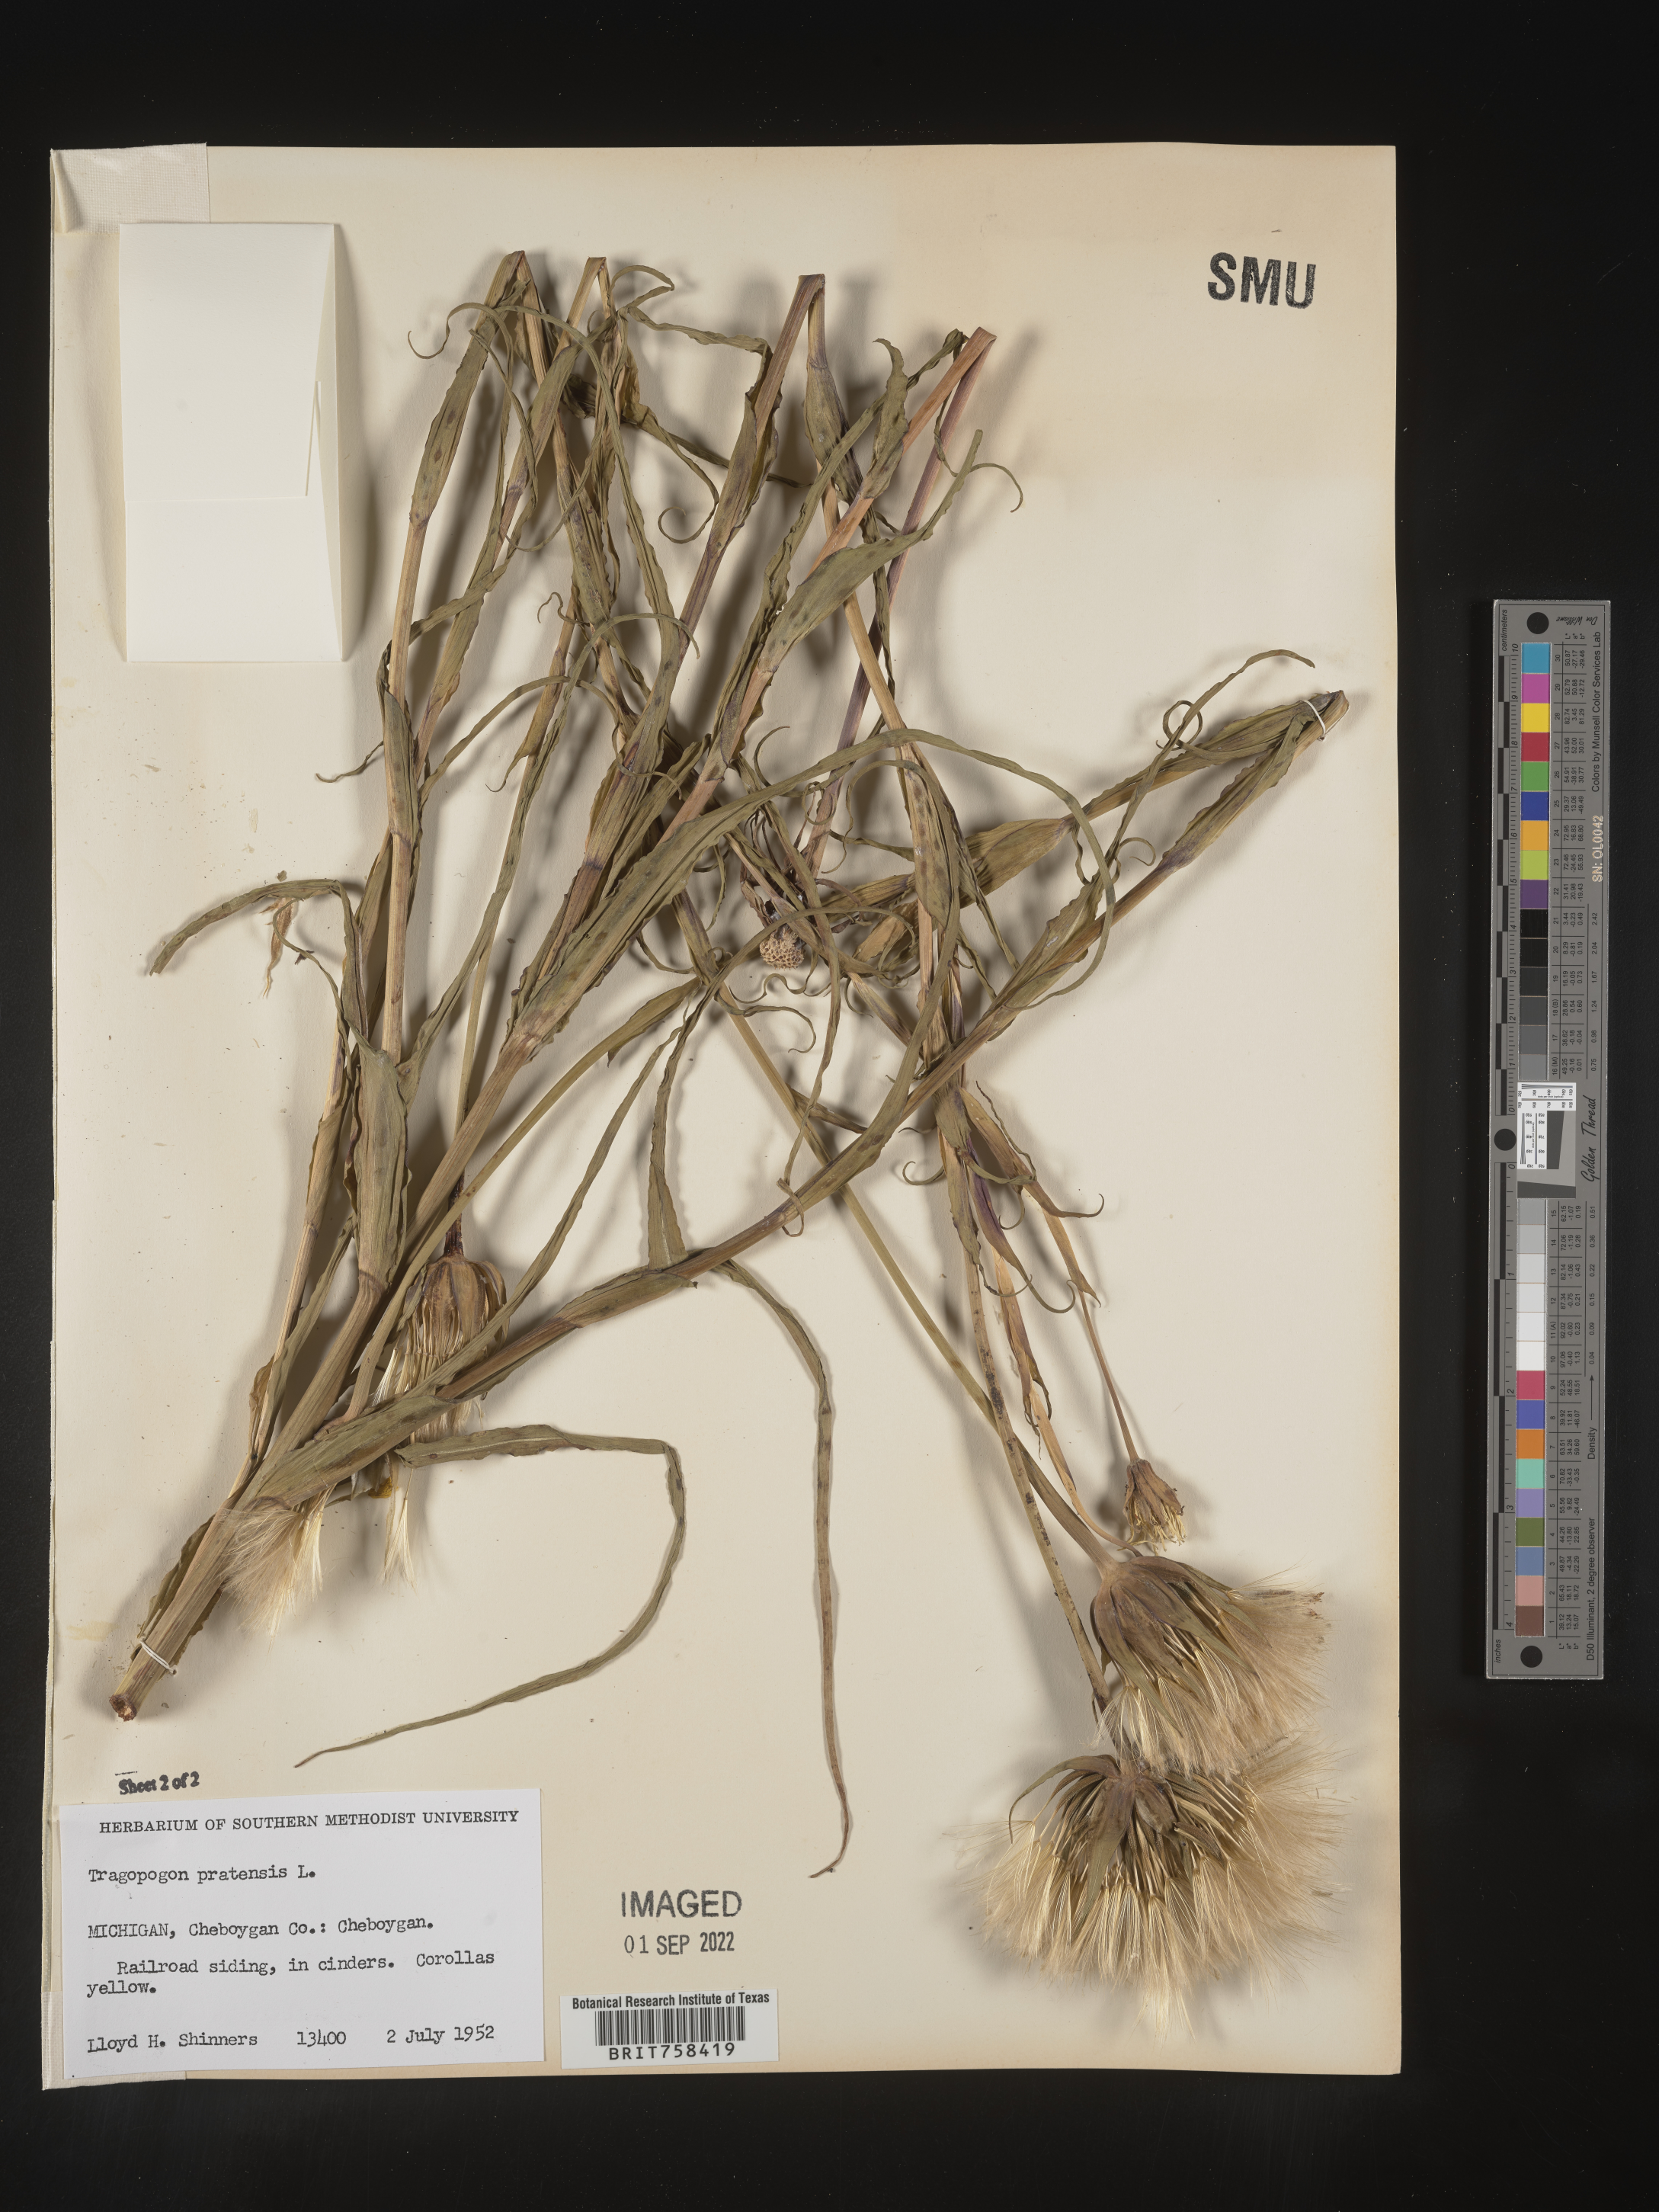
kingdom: Plantae
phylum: Tracheophyta
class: Magnoliopsida
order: Asterales
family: Asteraceae
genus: Tragopogon
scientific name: Tragopogon pratensis
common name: Goat's-beard
